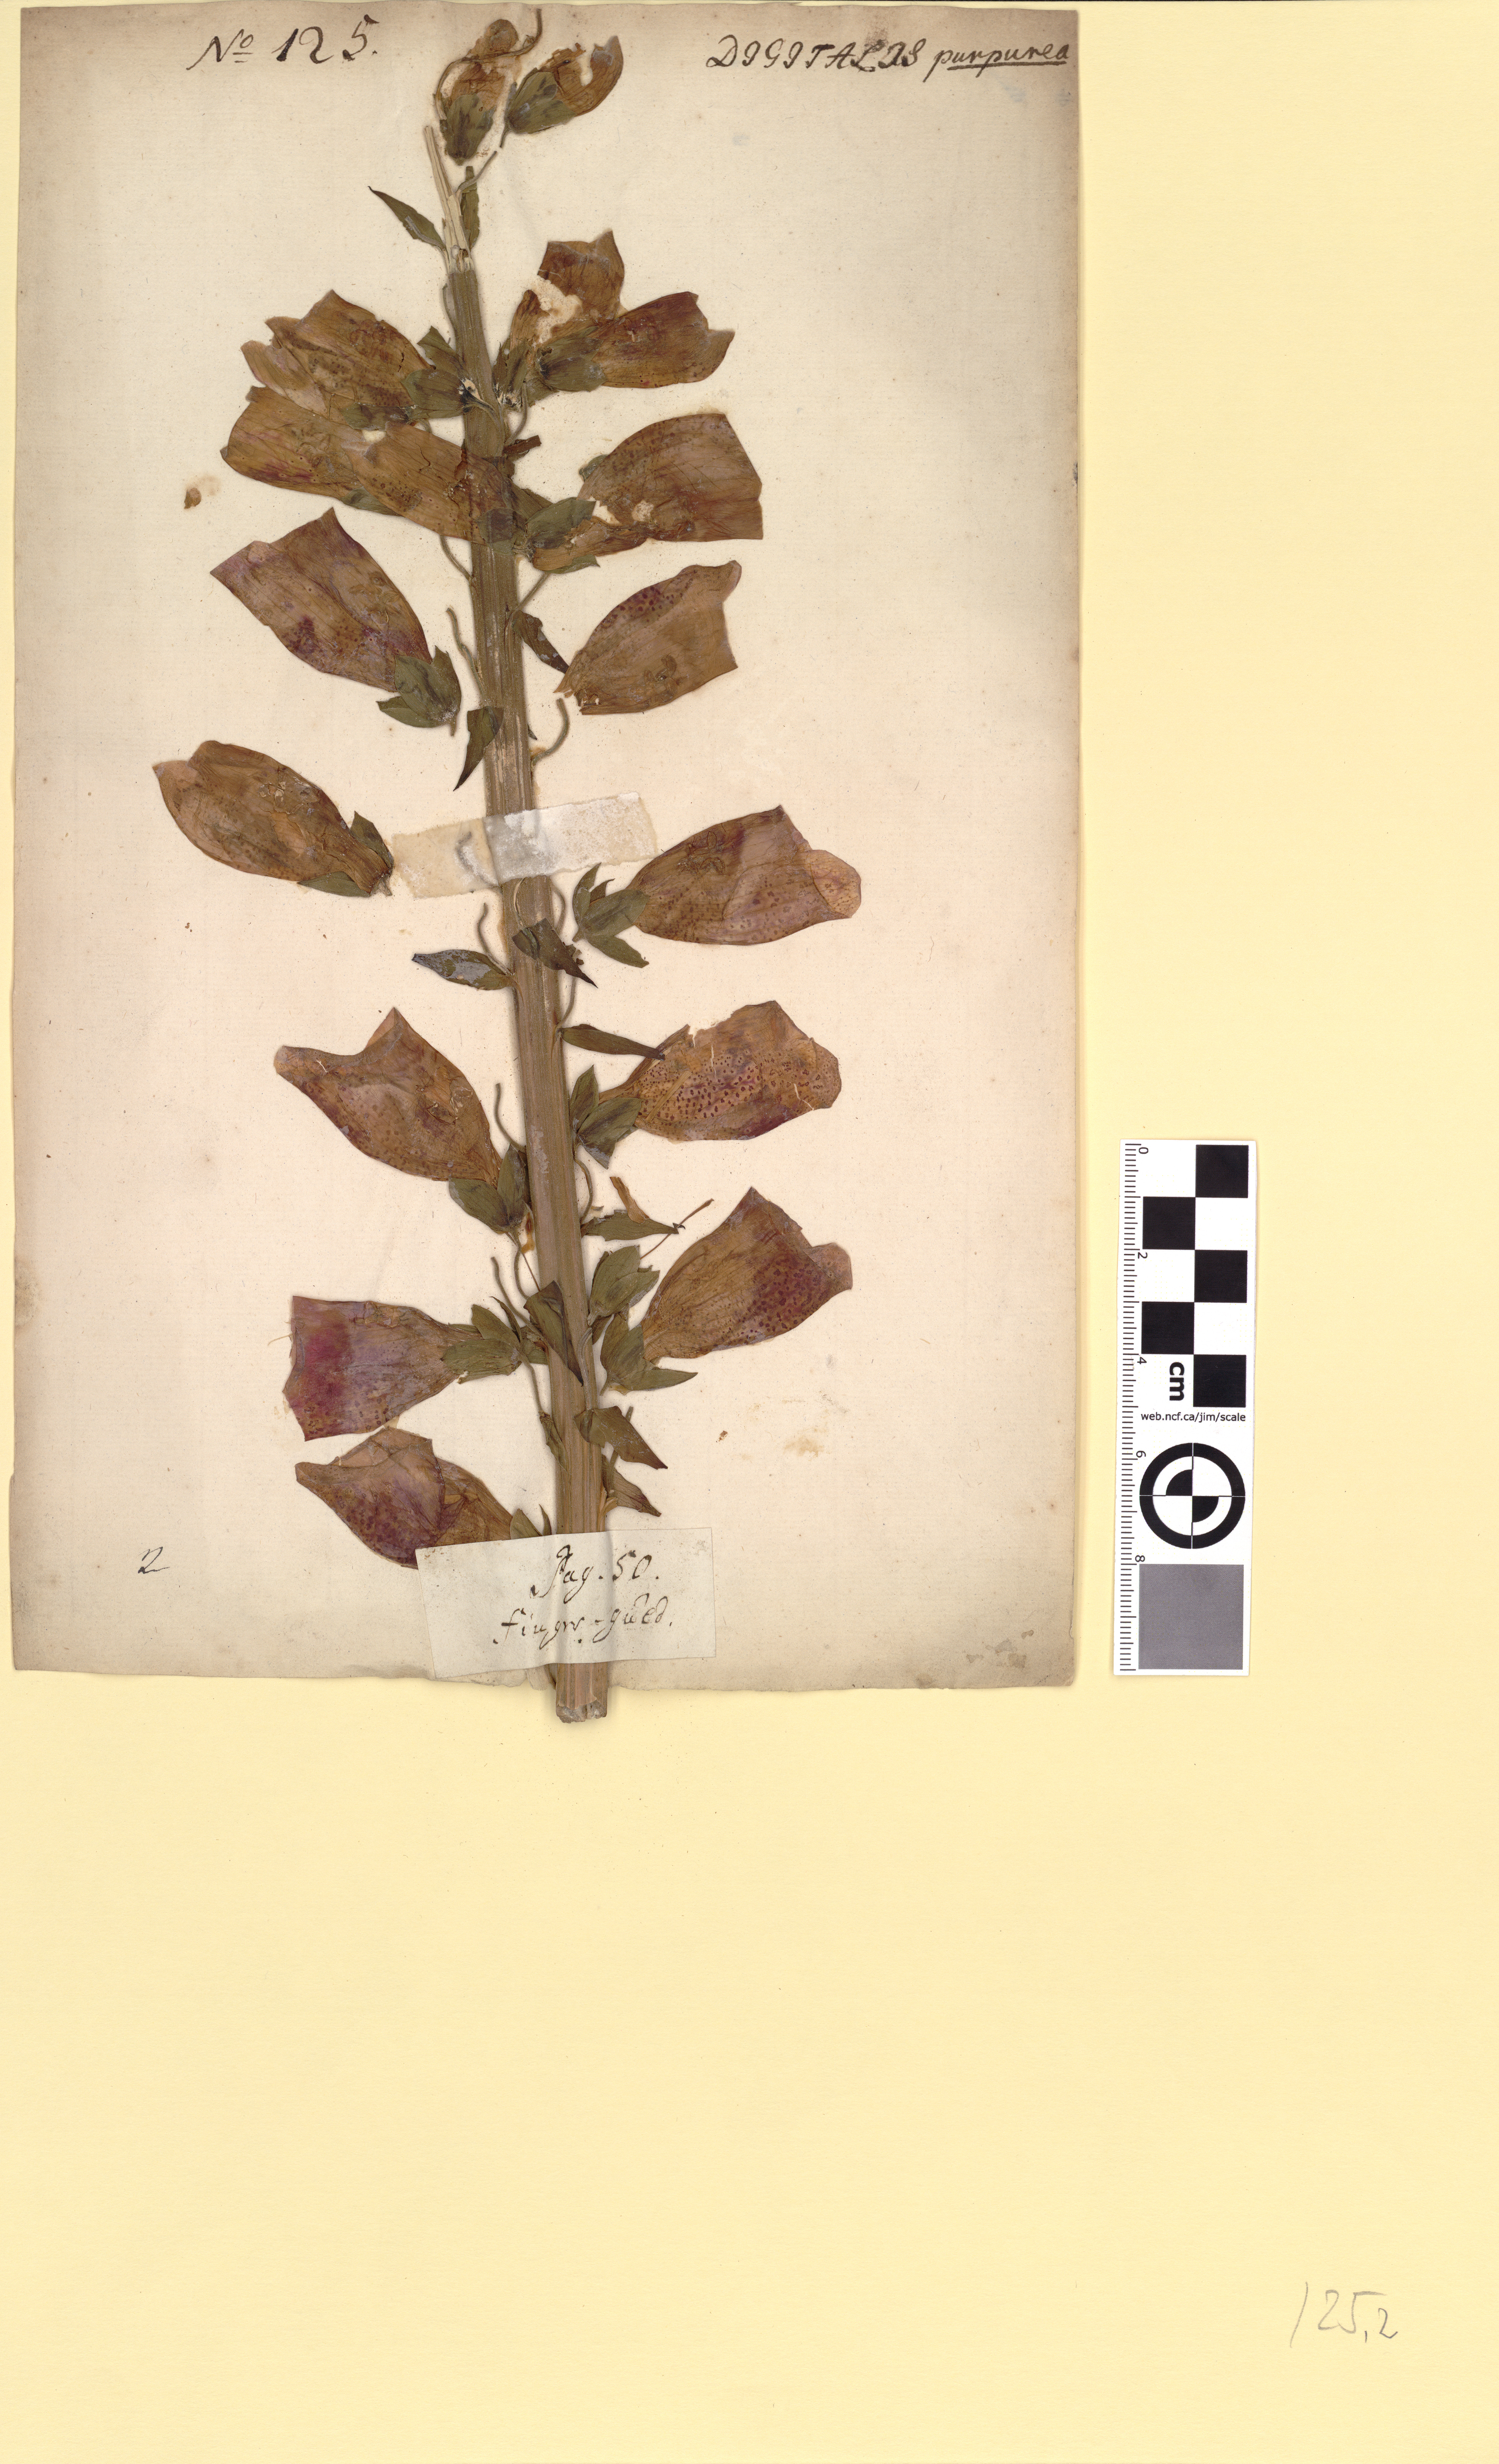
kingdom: Plantae
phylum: Tracheophyta
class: Magnoliopsida
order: Lamiales
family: Plantaginaceae
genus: Digitalis
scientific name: Digitalis purpurea
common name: Foxglove
